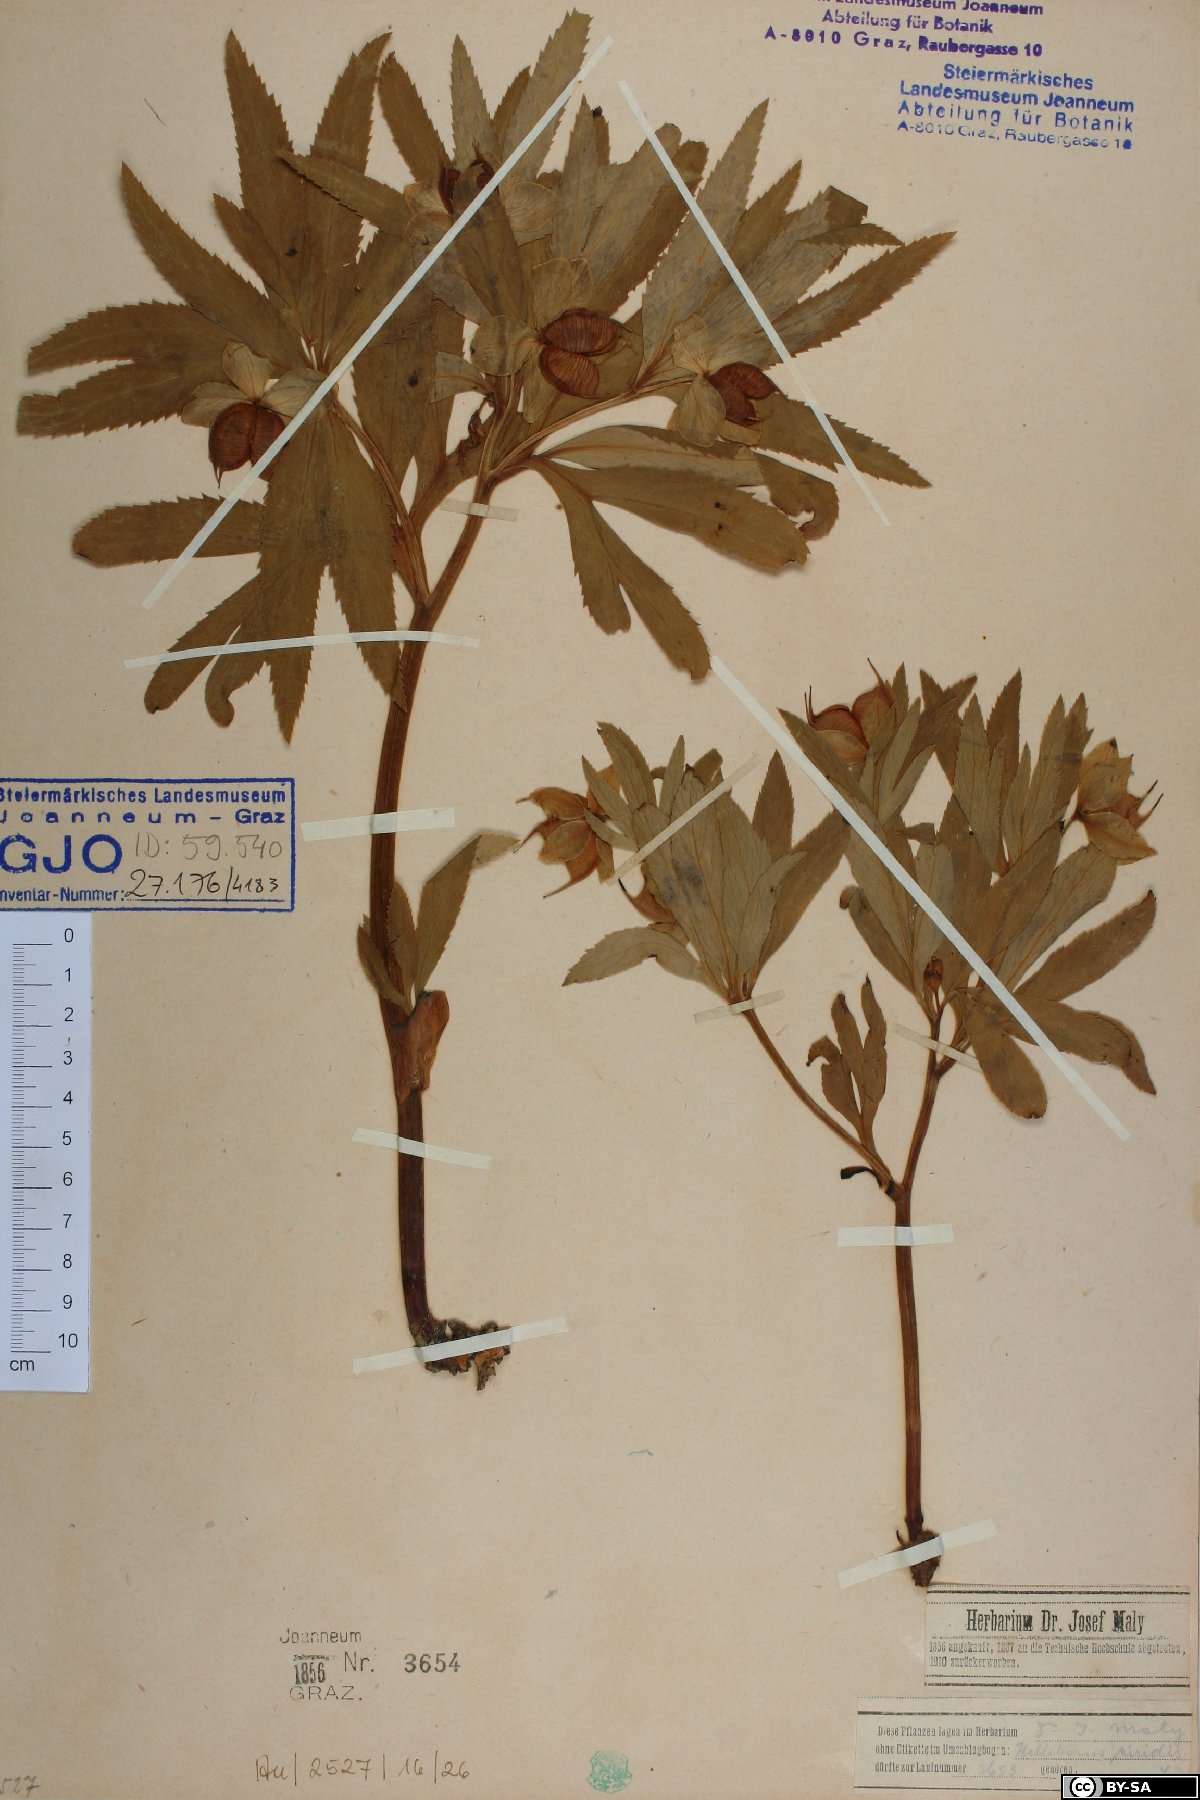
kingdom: Plantae
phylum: Tracheophyta
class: Magnoliopsida
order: Ranunculales
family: Ranunculaceae
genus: Helleborus
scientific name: Helleborus dumetorum
